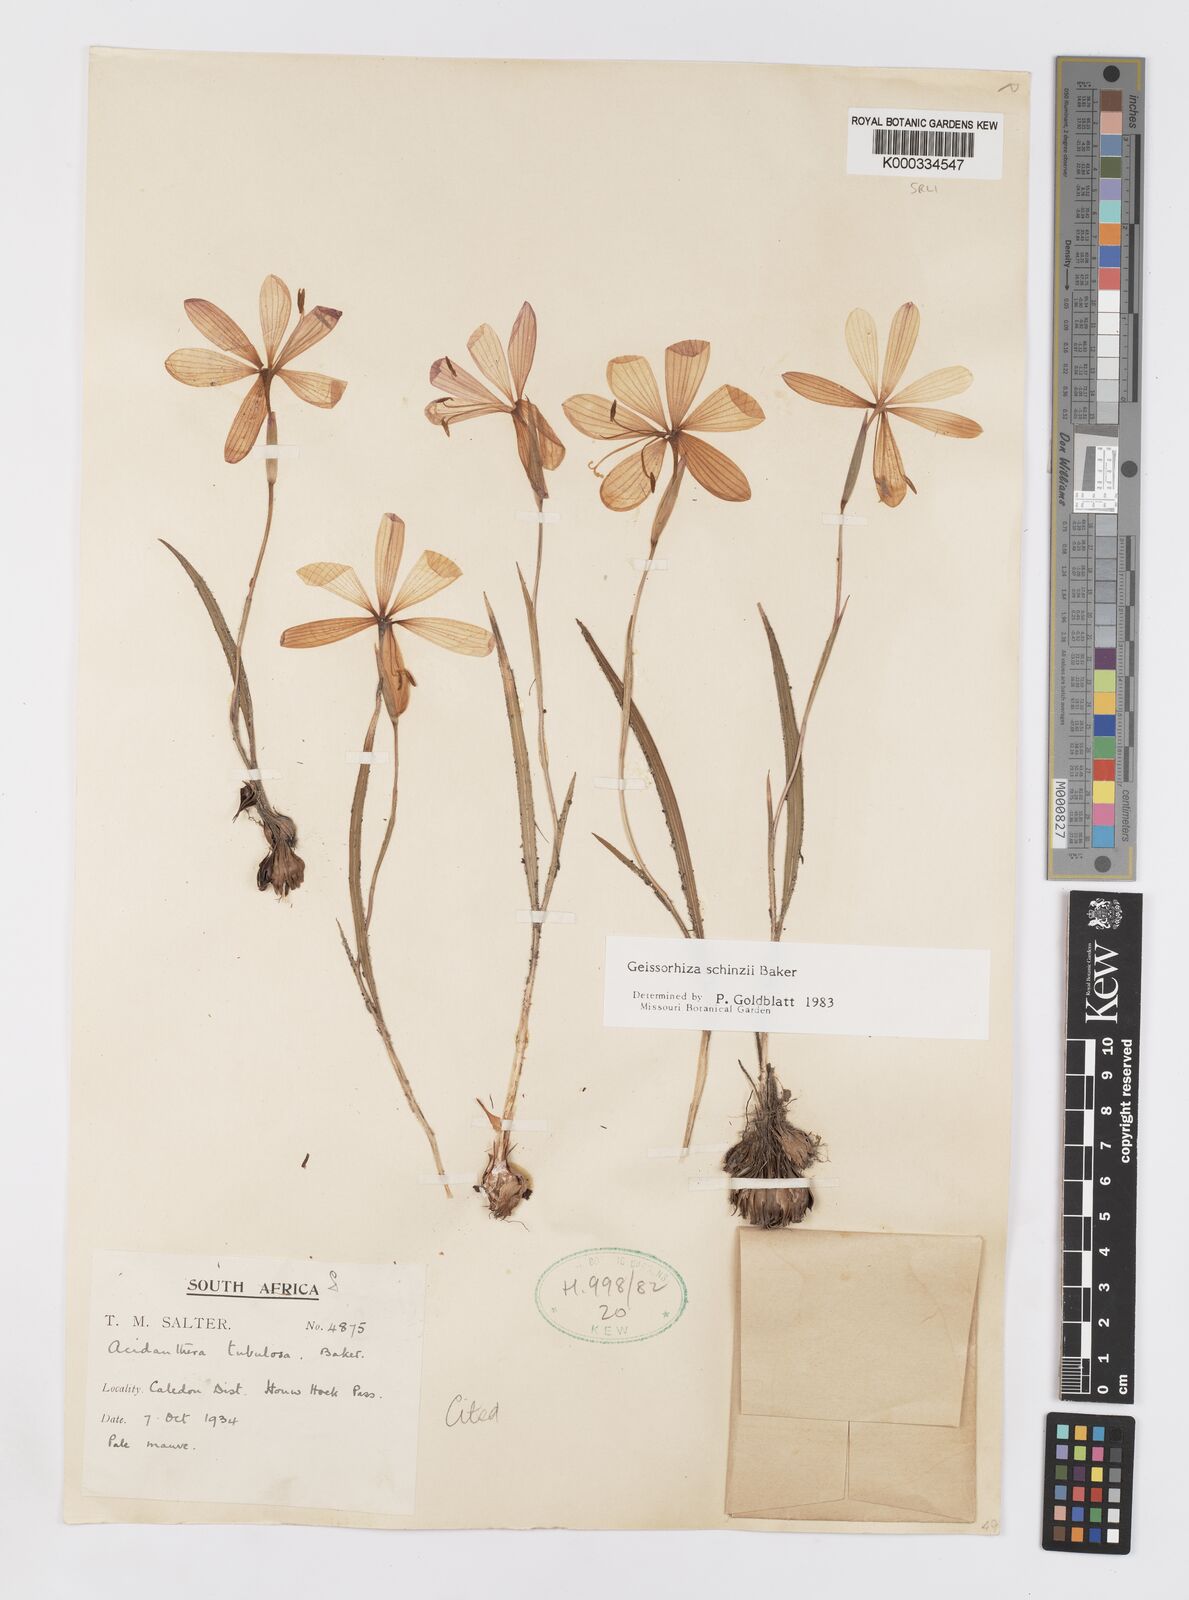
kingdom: Plantae
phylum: Tracheophyta
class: Liliopsida
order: Asparagales
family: Iridaceae
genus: Geissorhiza
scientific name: Geissorhiza schinzii
